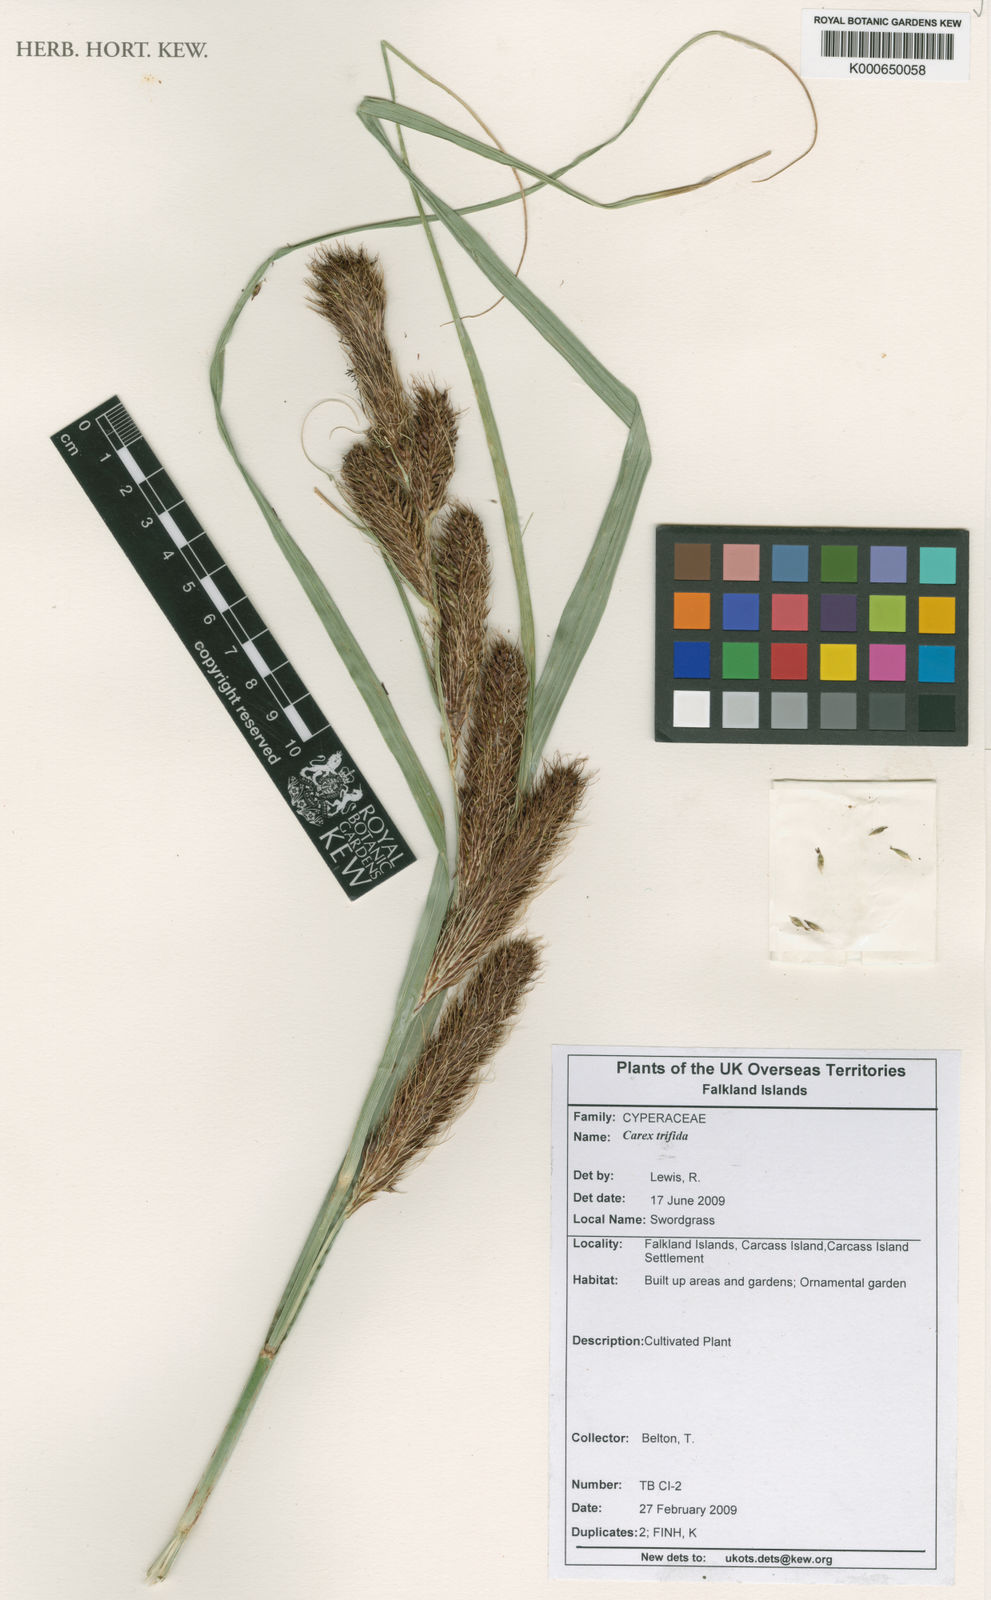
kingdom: Plantae
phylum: Tracheophyta
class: Liliopsida
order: Poales
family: Cyperaceae
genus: Carex
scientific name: Carex trifida
